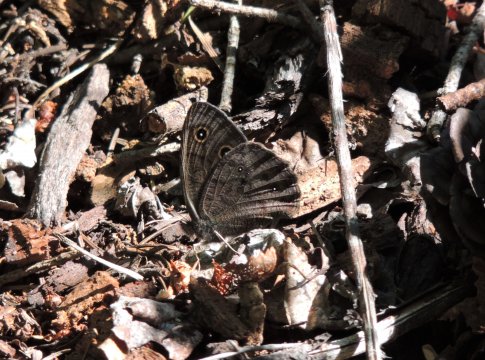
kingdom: Animalia
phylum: Arthropoda
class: Insecta
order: Lepidoptera
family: Nymphalidae
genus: Cercyonis
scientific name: Cercyonis pegala
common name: Common Wood-Nymph
